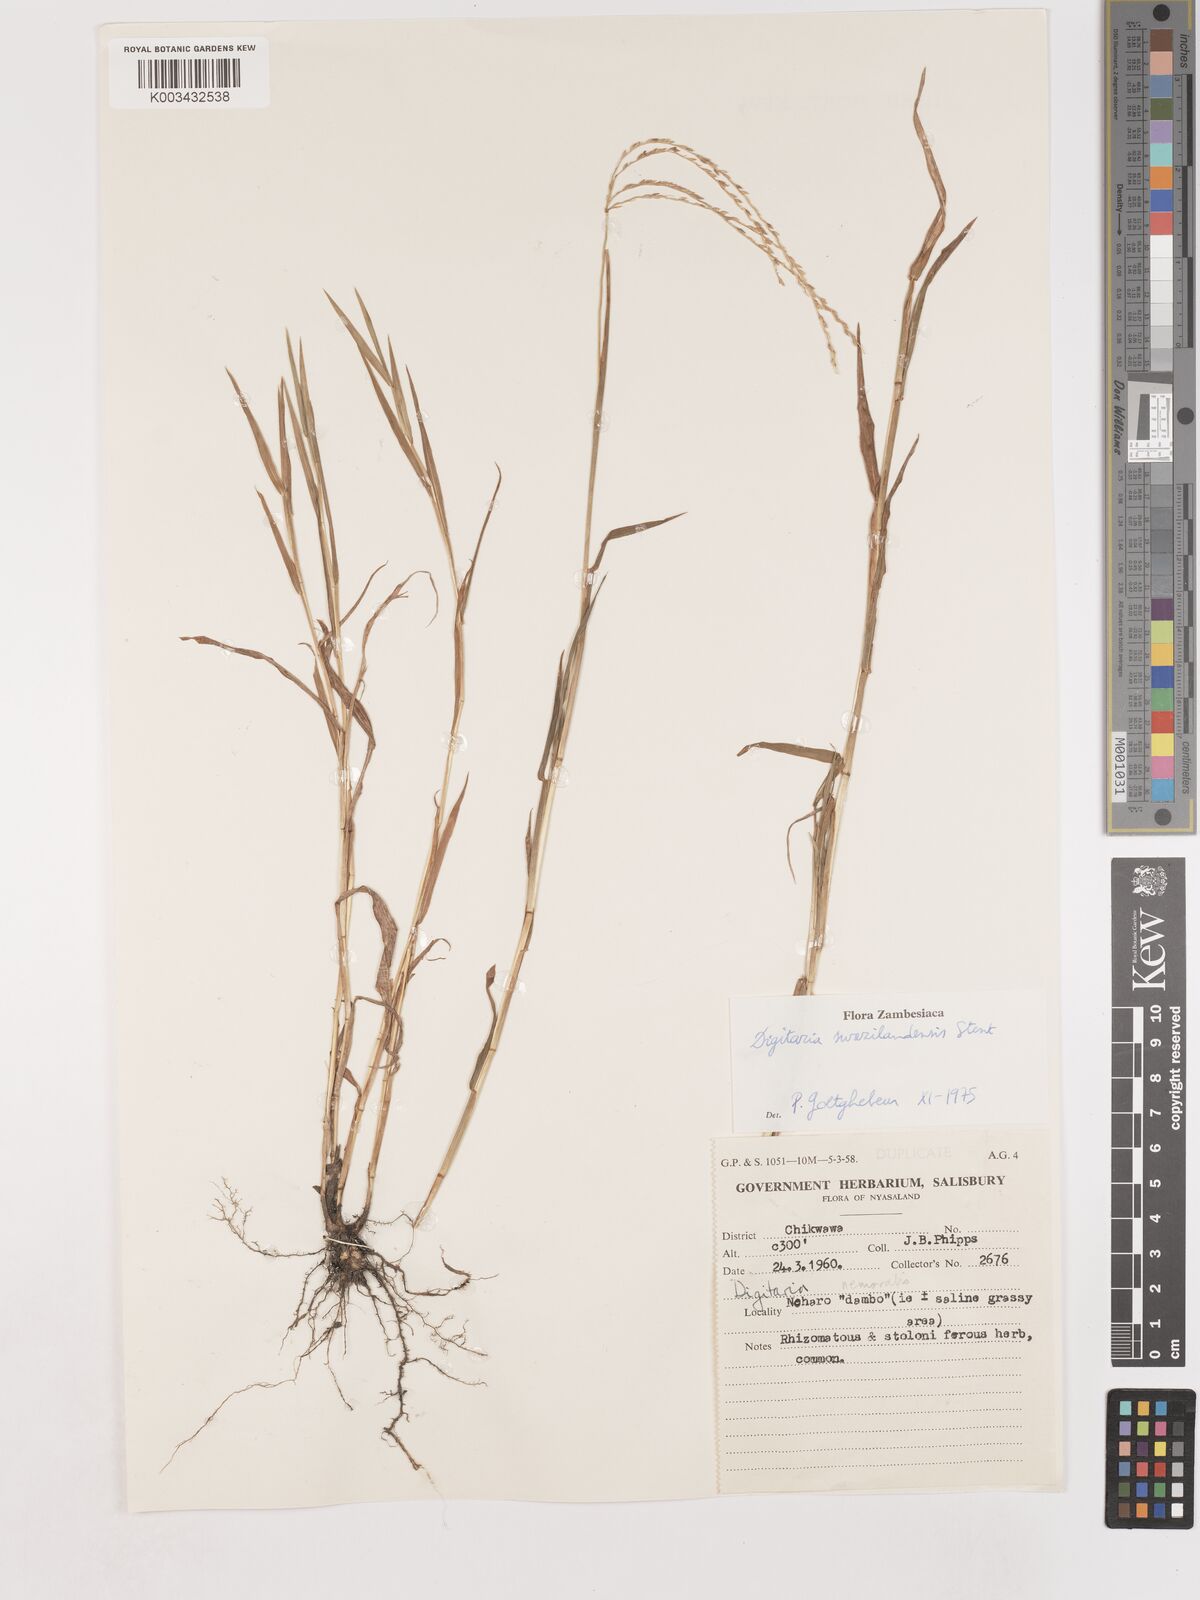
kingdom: Plantae
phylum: Tracheophyta
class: Liliopsida
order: Poales
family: Poaceae
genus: Digitaria
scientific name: Digitaria didactyla
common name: Blue couch
